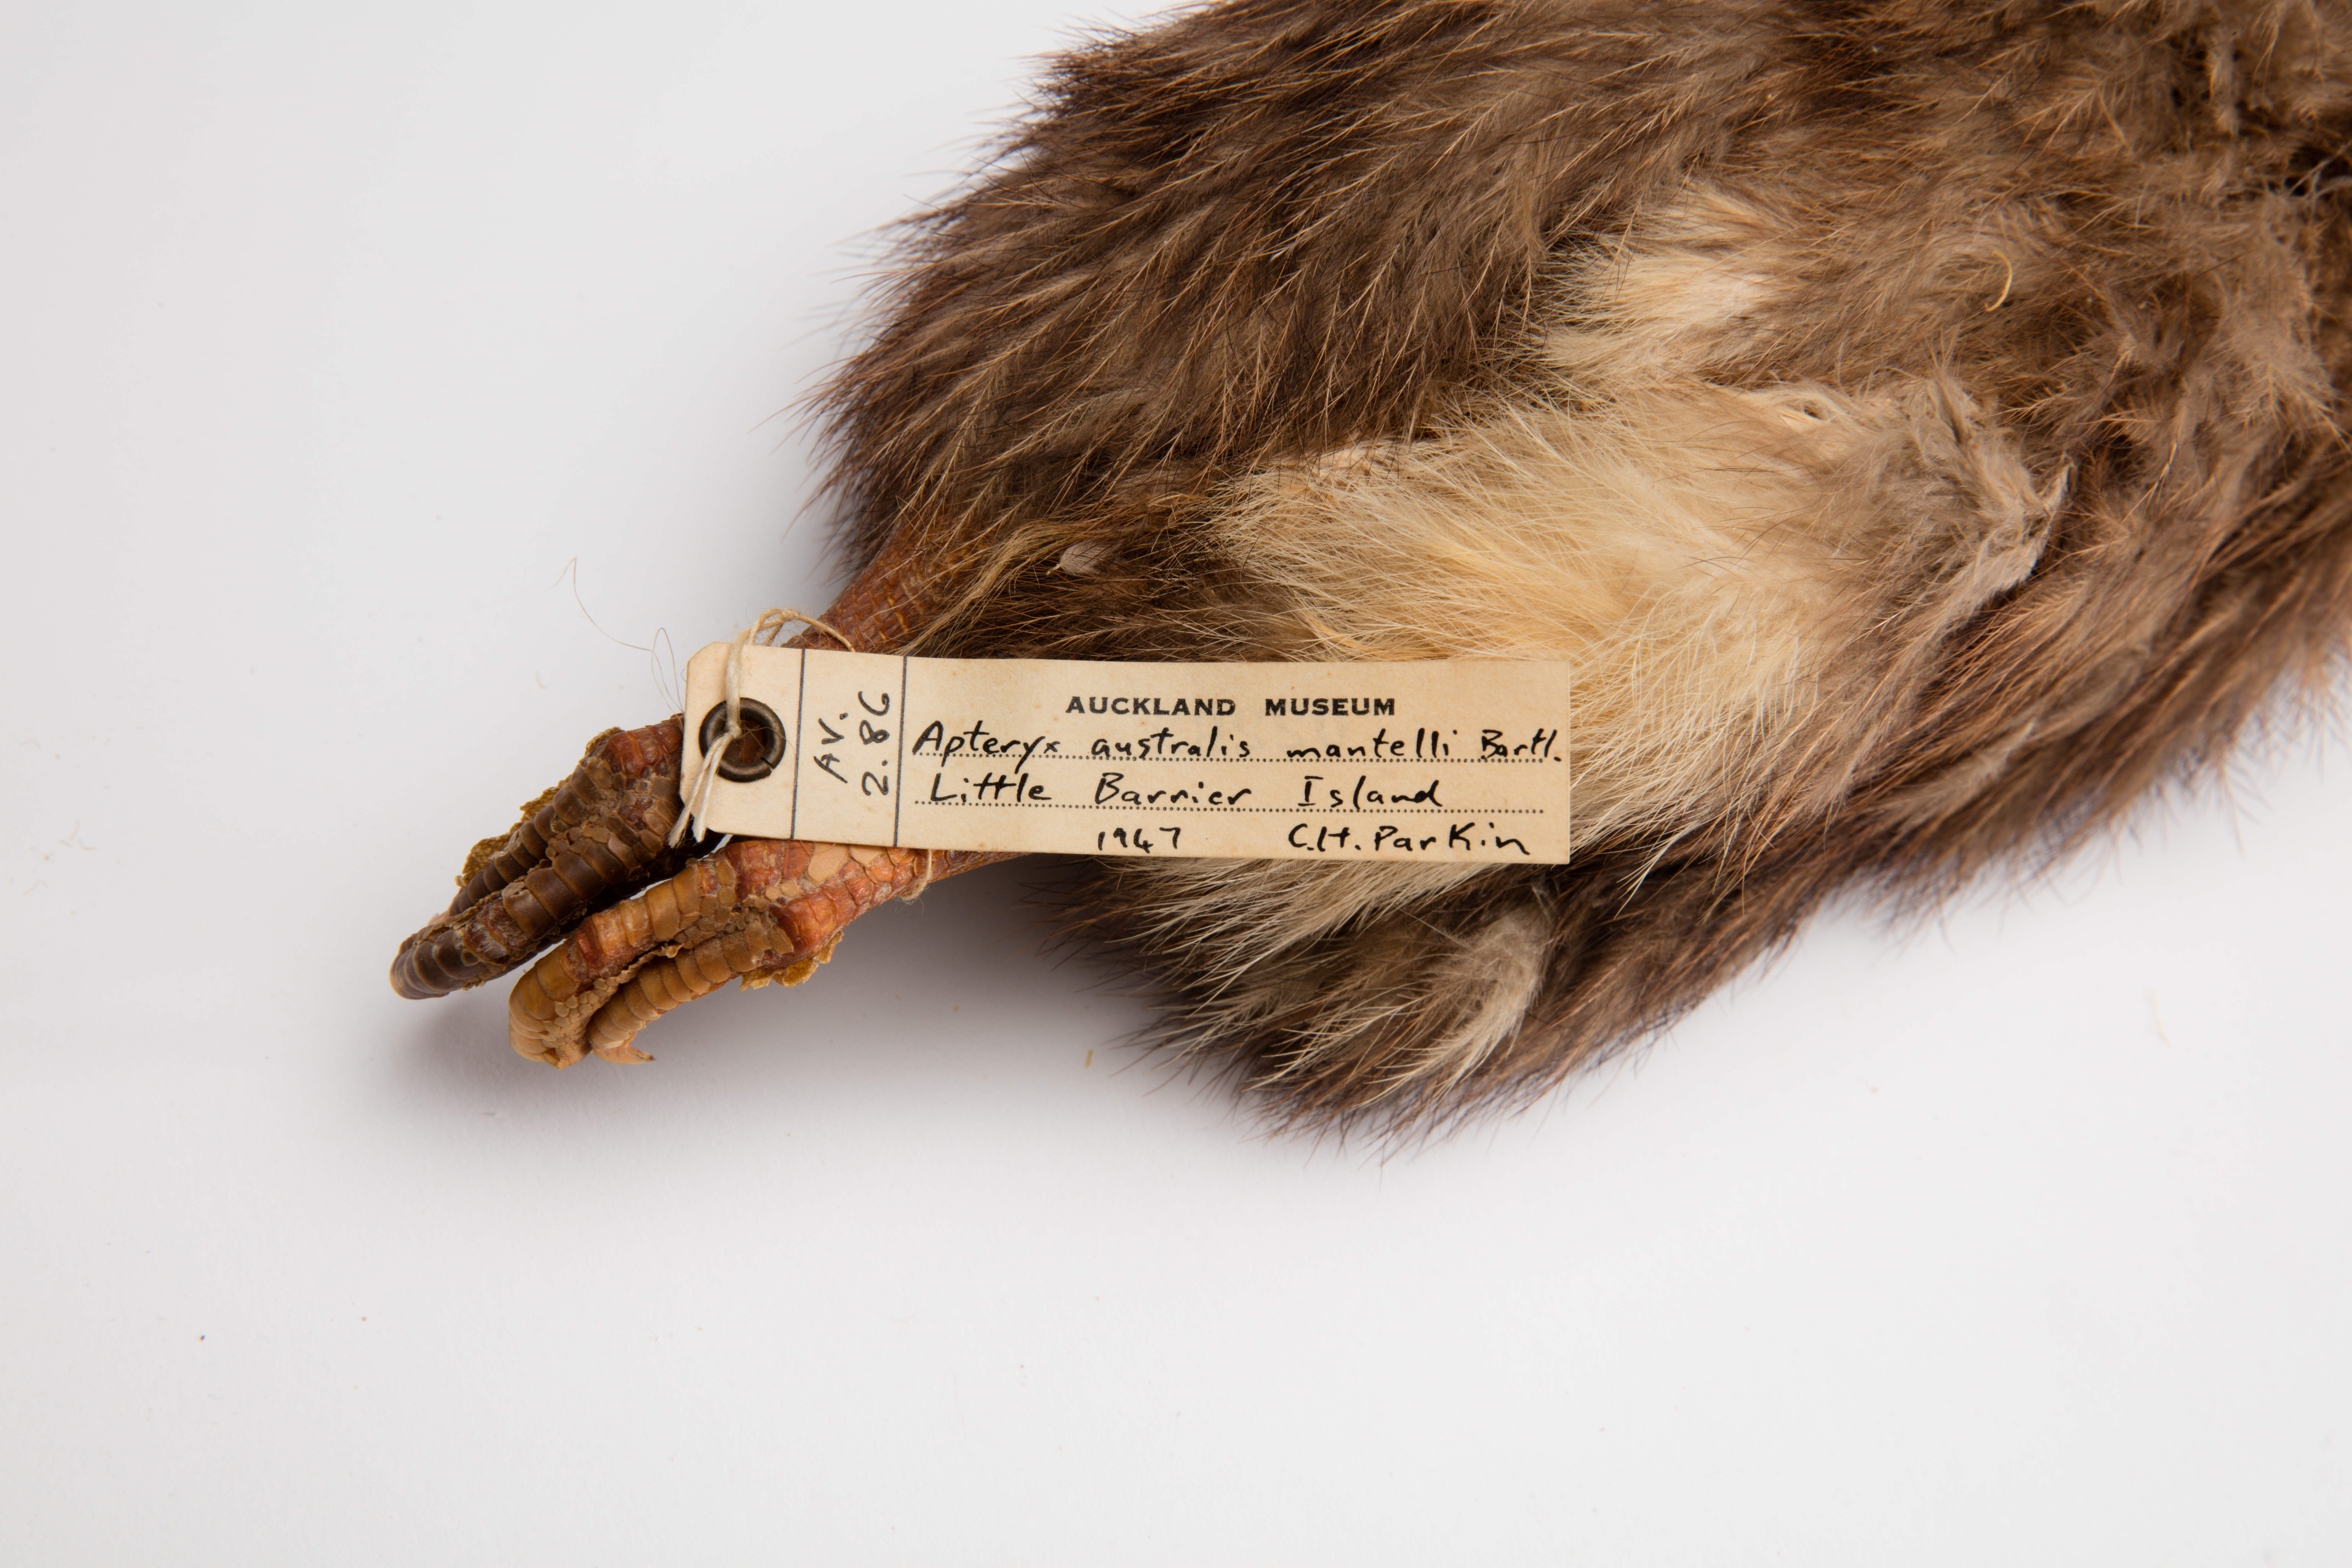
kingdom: Animalia
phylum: Chordata
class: Aves
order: Apterygiformes
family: Apterygidae
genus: Apteryx
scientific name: Apteryx mantelli
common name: North island brown kiwi
